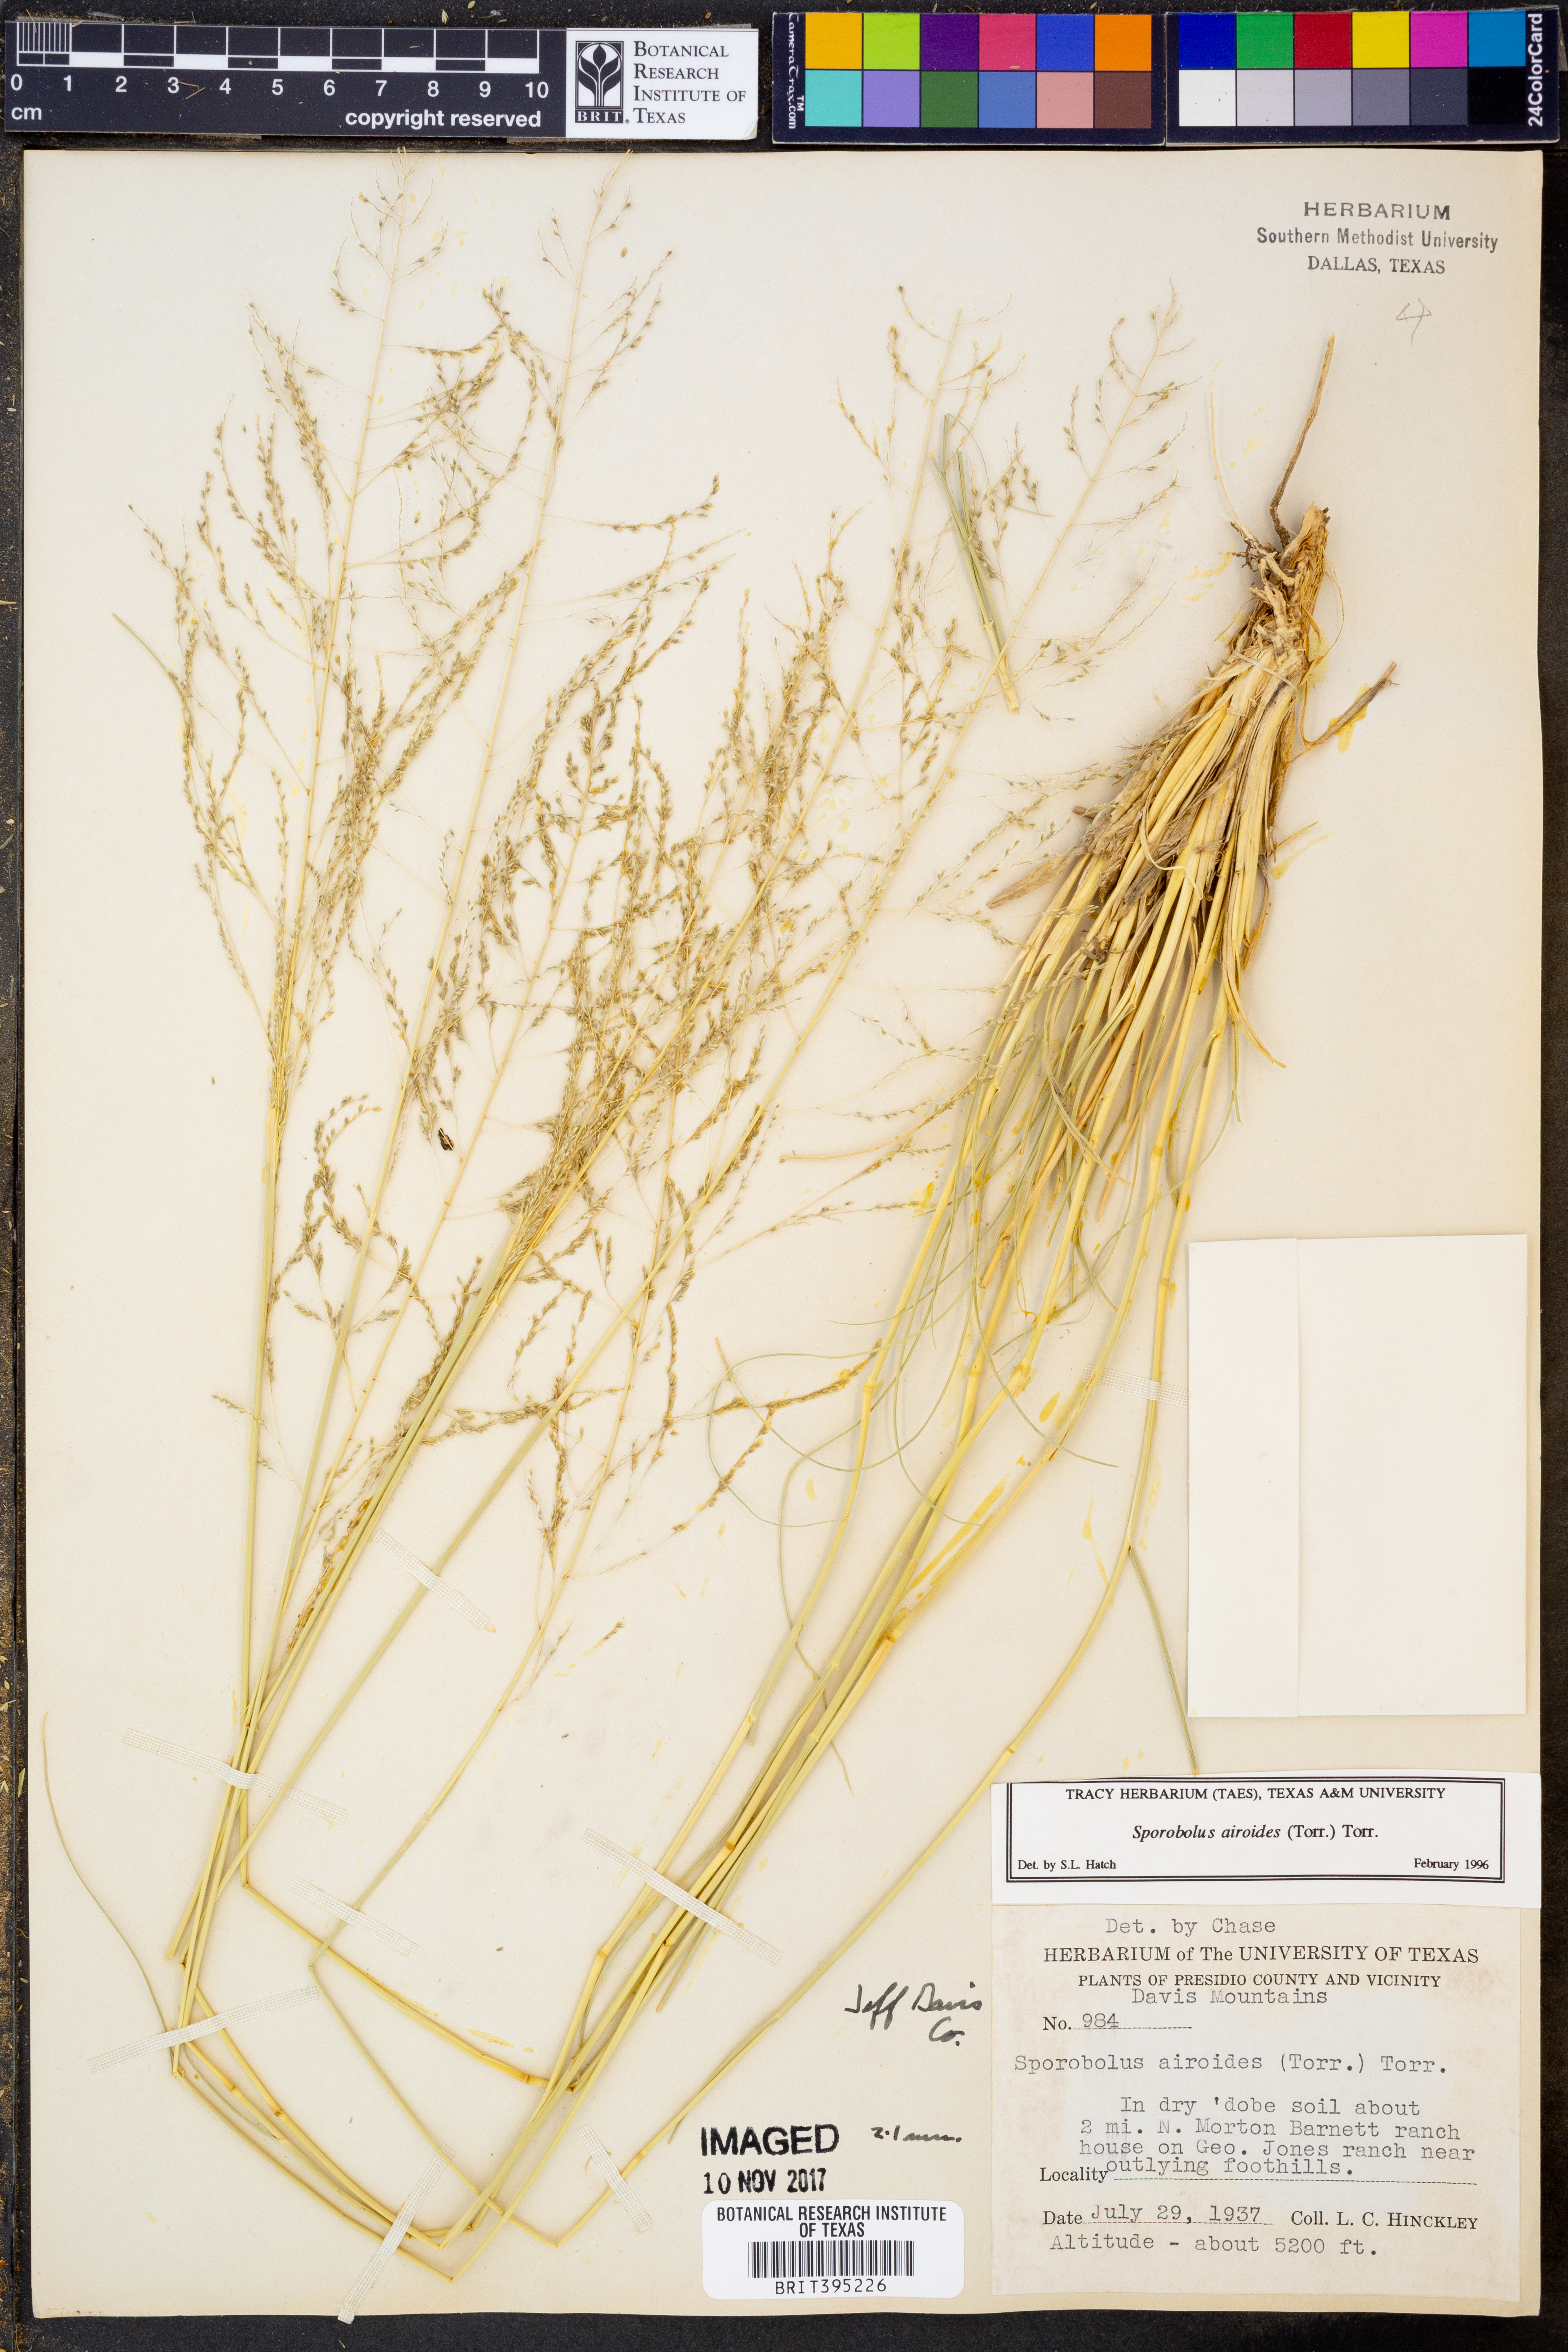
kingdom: Plantae
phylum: Tracheophyta
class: Liliopsida
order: Poales
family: Poaceae
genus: Sporobolus
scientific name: Sporobolus airoides
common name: Alkali sacaton
